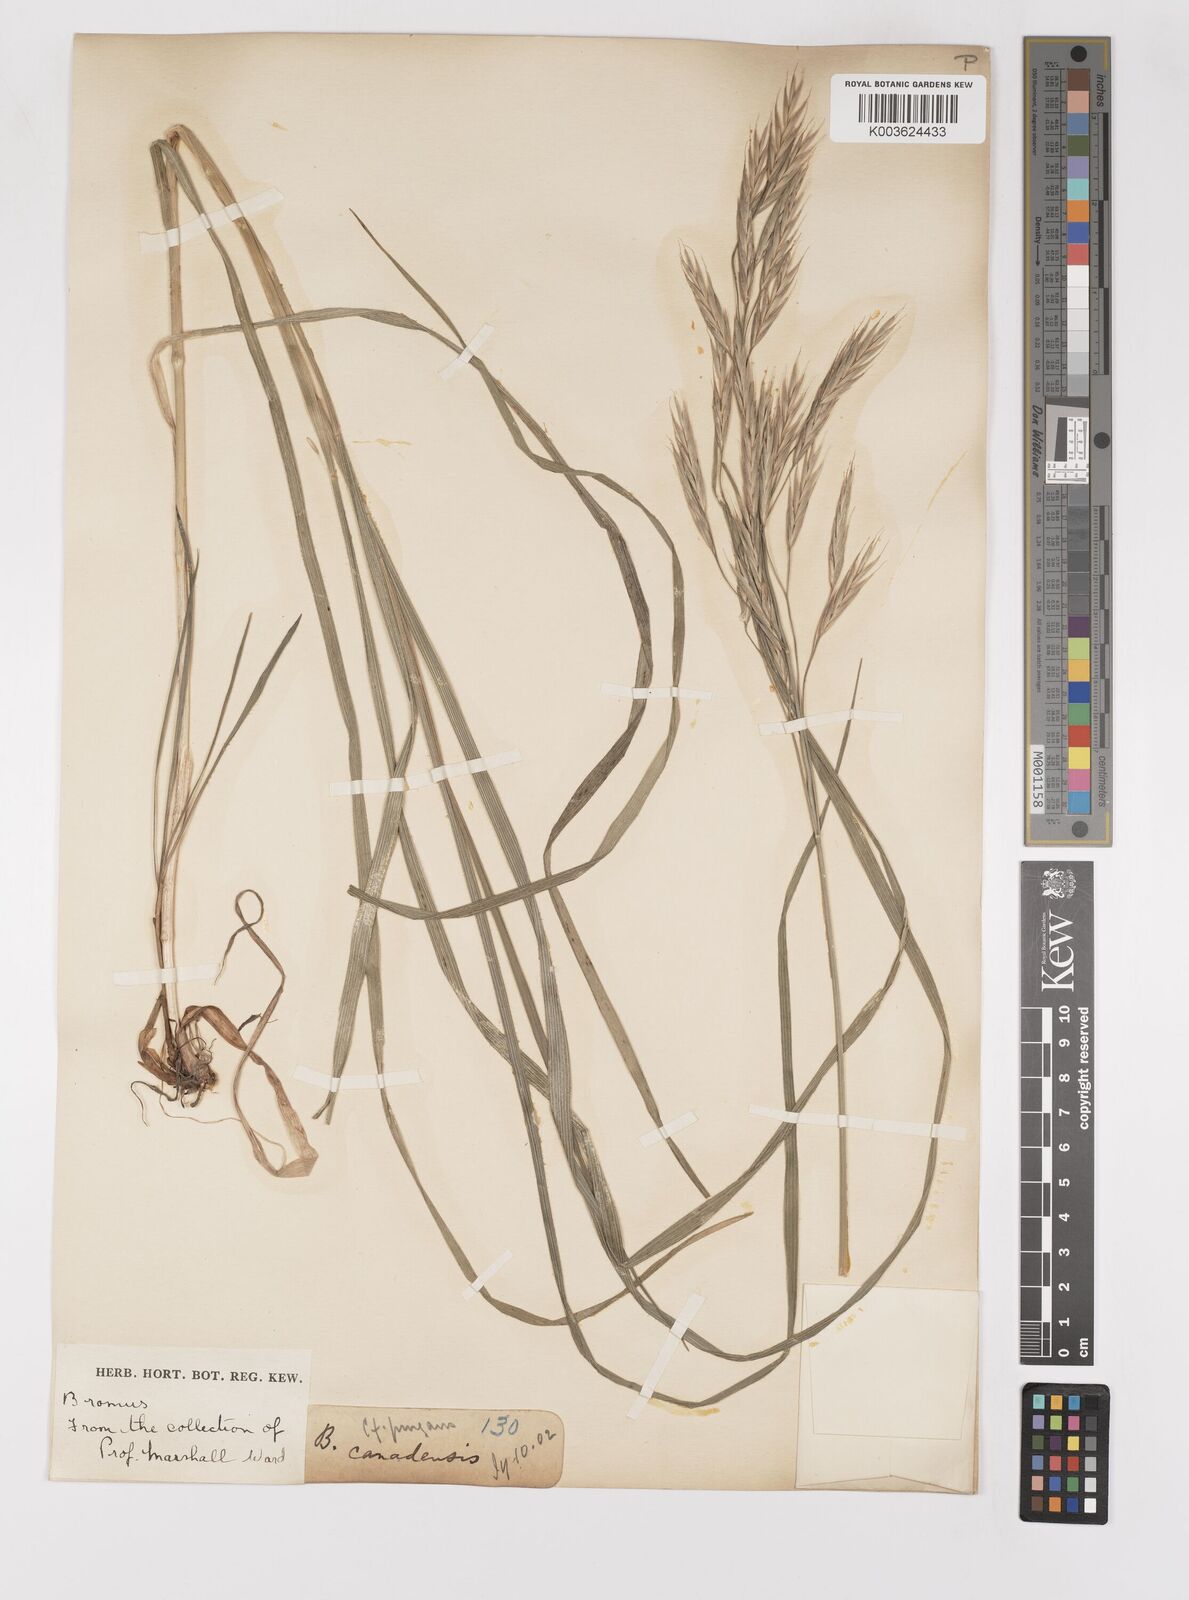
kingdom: Plantae
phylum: Tracheophyta
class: Liliopsida
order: Poales
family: Poaceae
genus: Bromus
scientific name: Bromus
